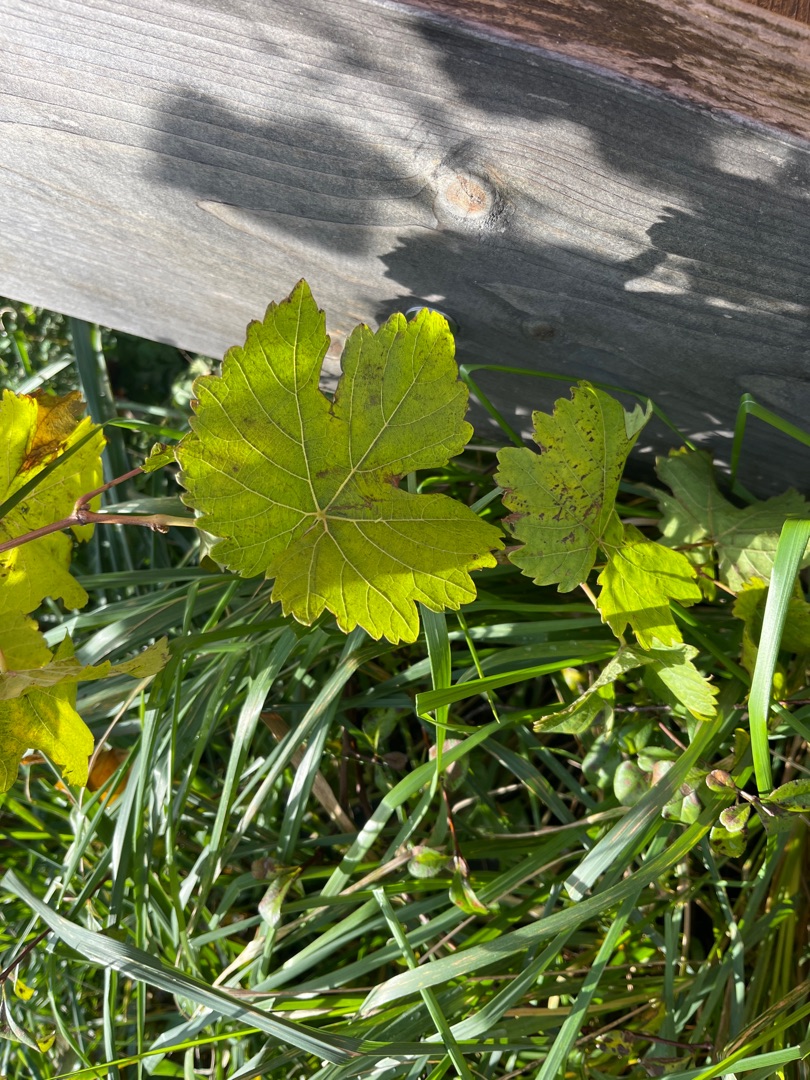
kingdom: Plantae
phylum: Tracheophyta
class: Magnoliopsida
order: Vitales
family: Vitaceae
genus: Vitis
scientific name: Vitis vinifera
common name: Almindelig vin
